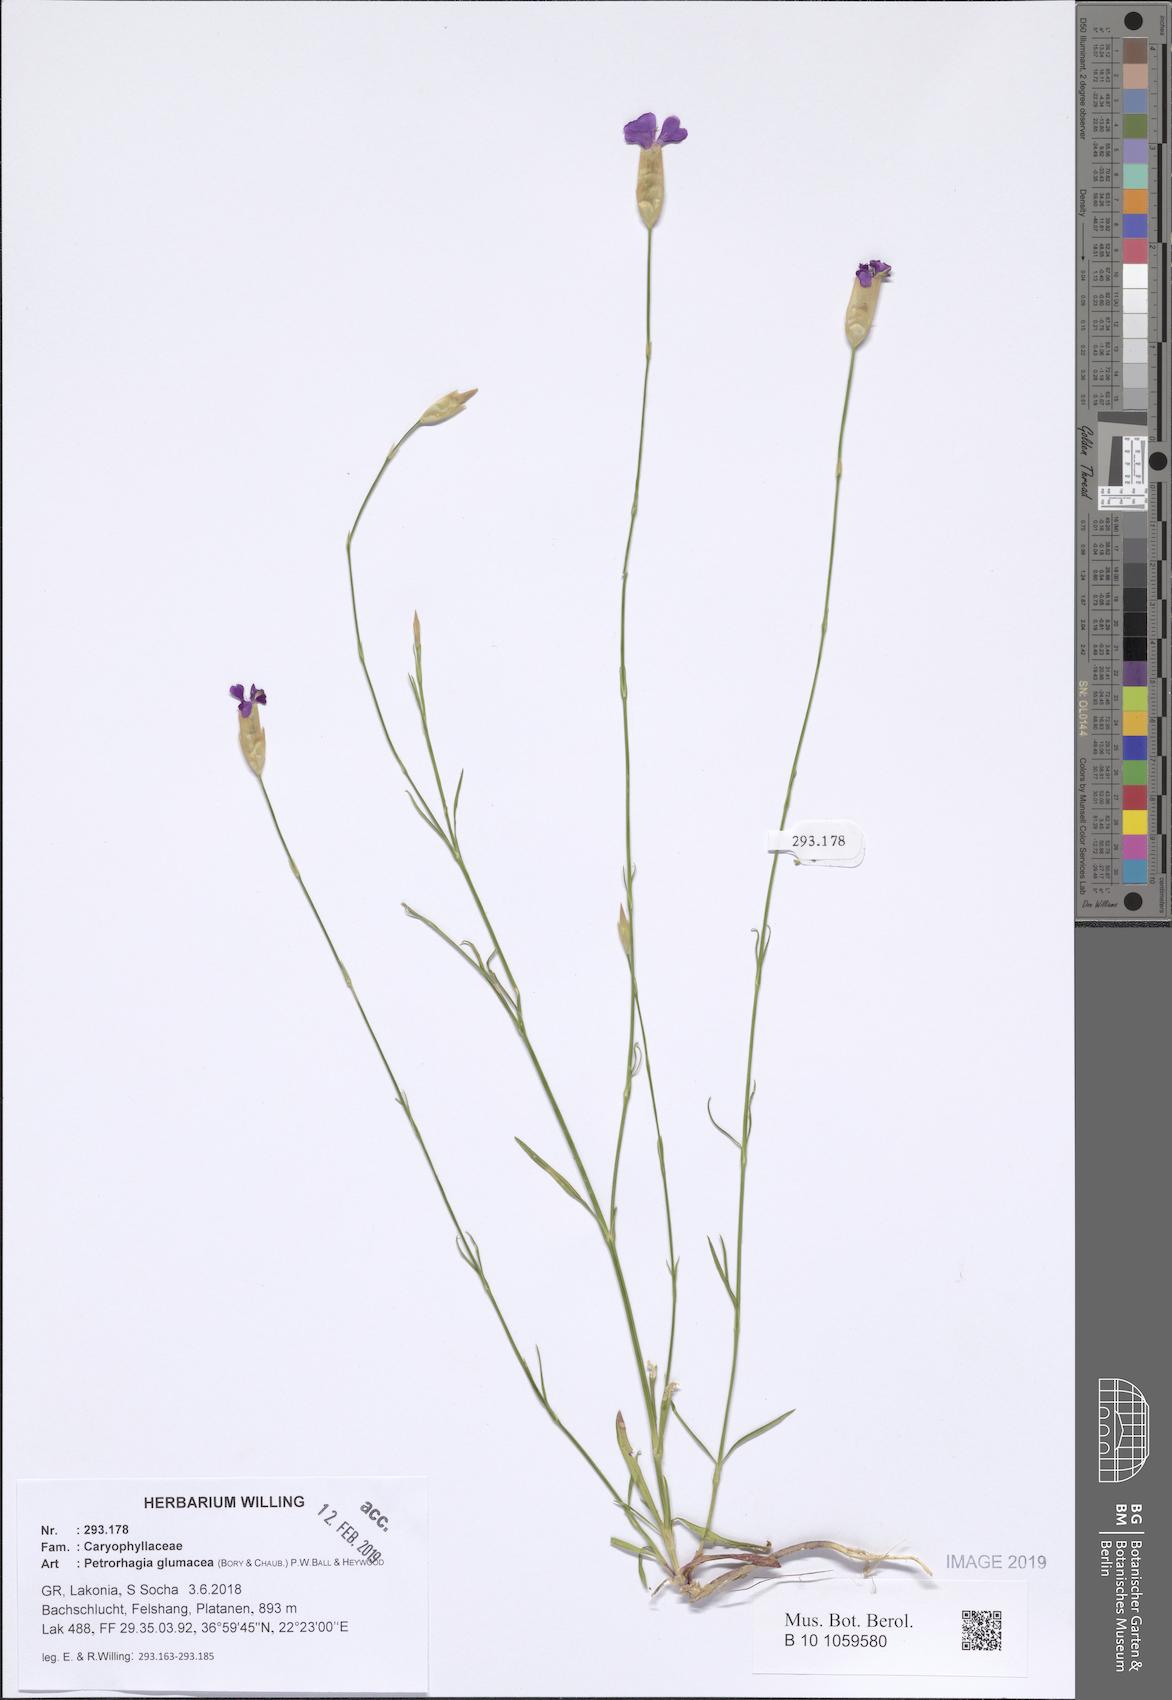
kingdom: Plantae
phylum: Tracheophyta
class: Magnoliopsida
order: Caryophyllales
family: Caryophyllaceae
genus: Petrorhagia
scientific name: Petrorhagia glumacea
